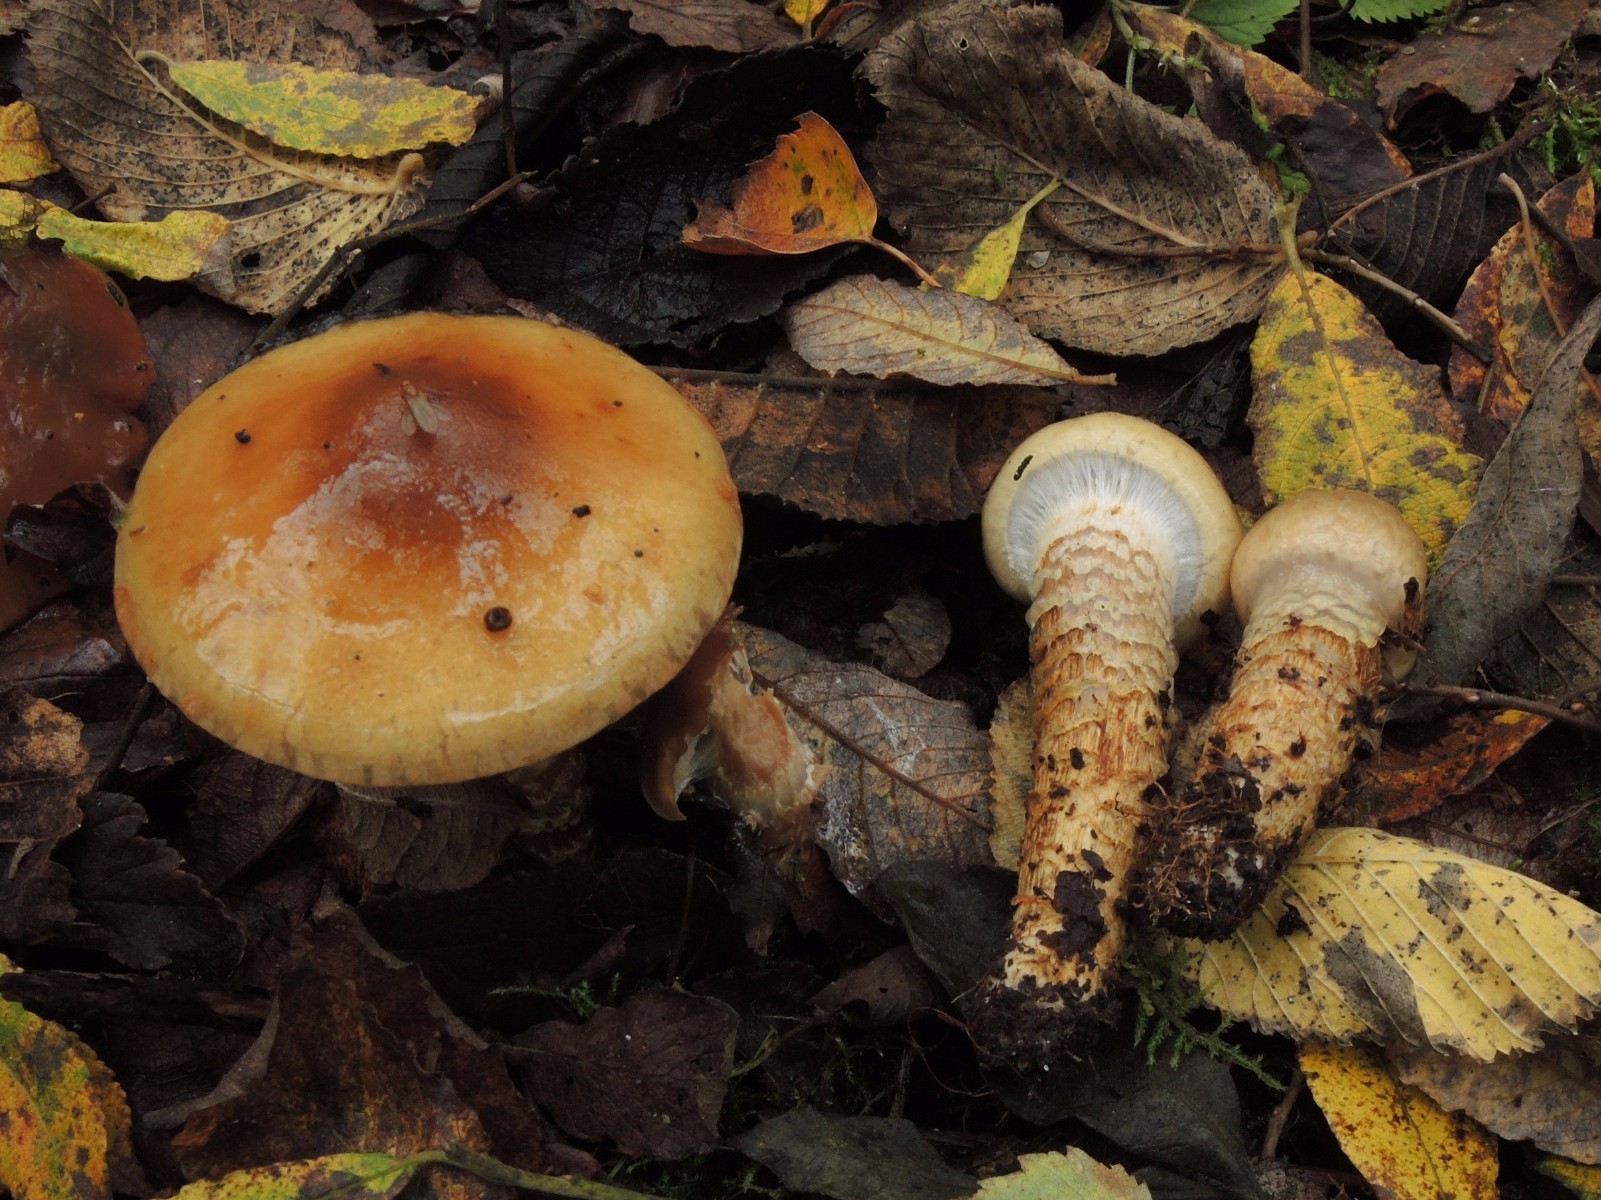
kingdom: Fungi
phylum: Basidiomycota
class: Agaricomycetes
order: Agaricales
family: Cortinariaceae
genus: Cortinarius
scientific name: Cortinarius trivialis
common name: brunslimet slørhat
